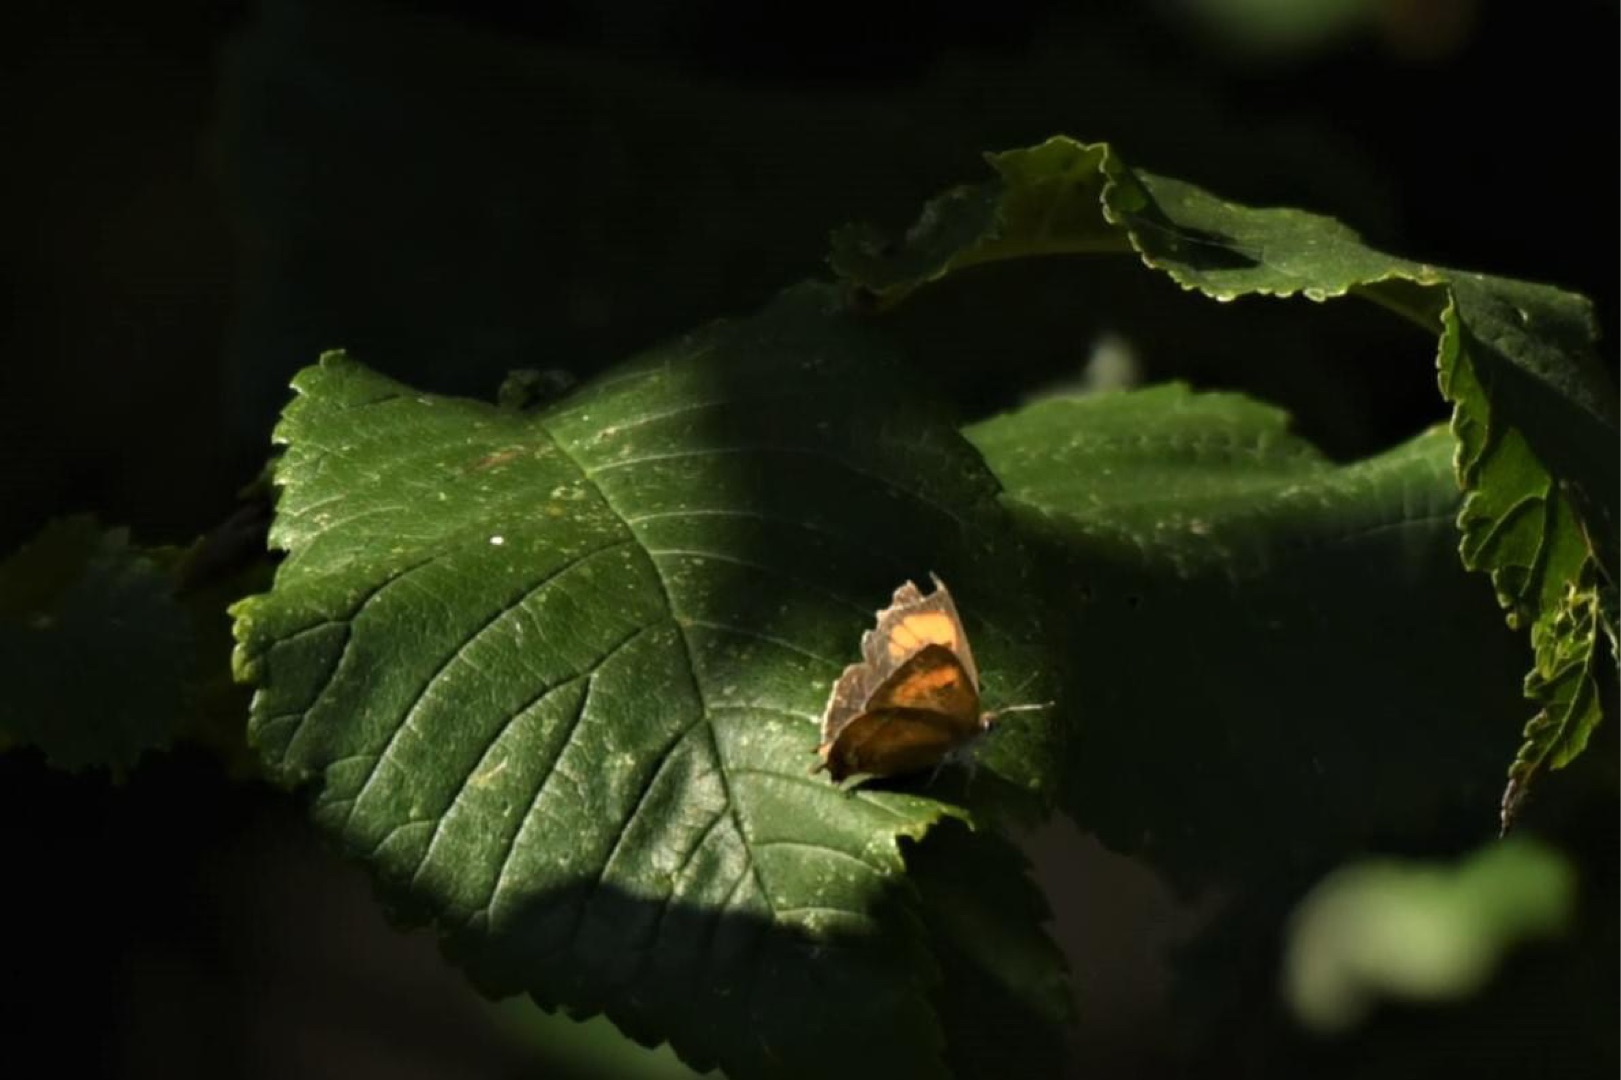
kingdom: Animalia
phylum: Arthropoda
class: Insecta
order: Lepidoptera
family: Lycaenidae
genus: Thecla
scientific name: Thecla betulae
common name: Guldhale
